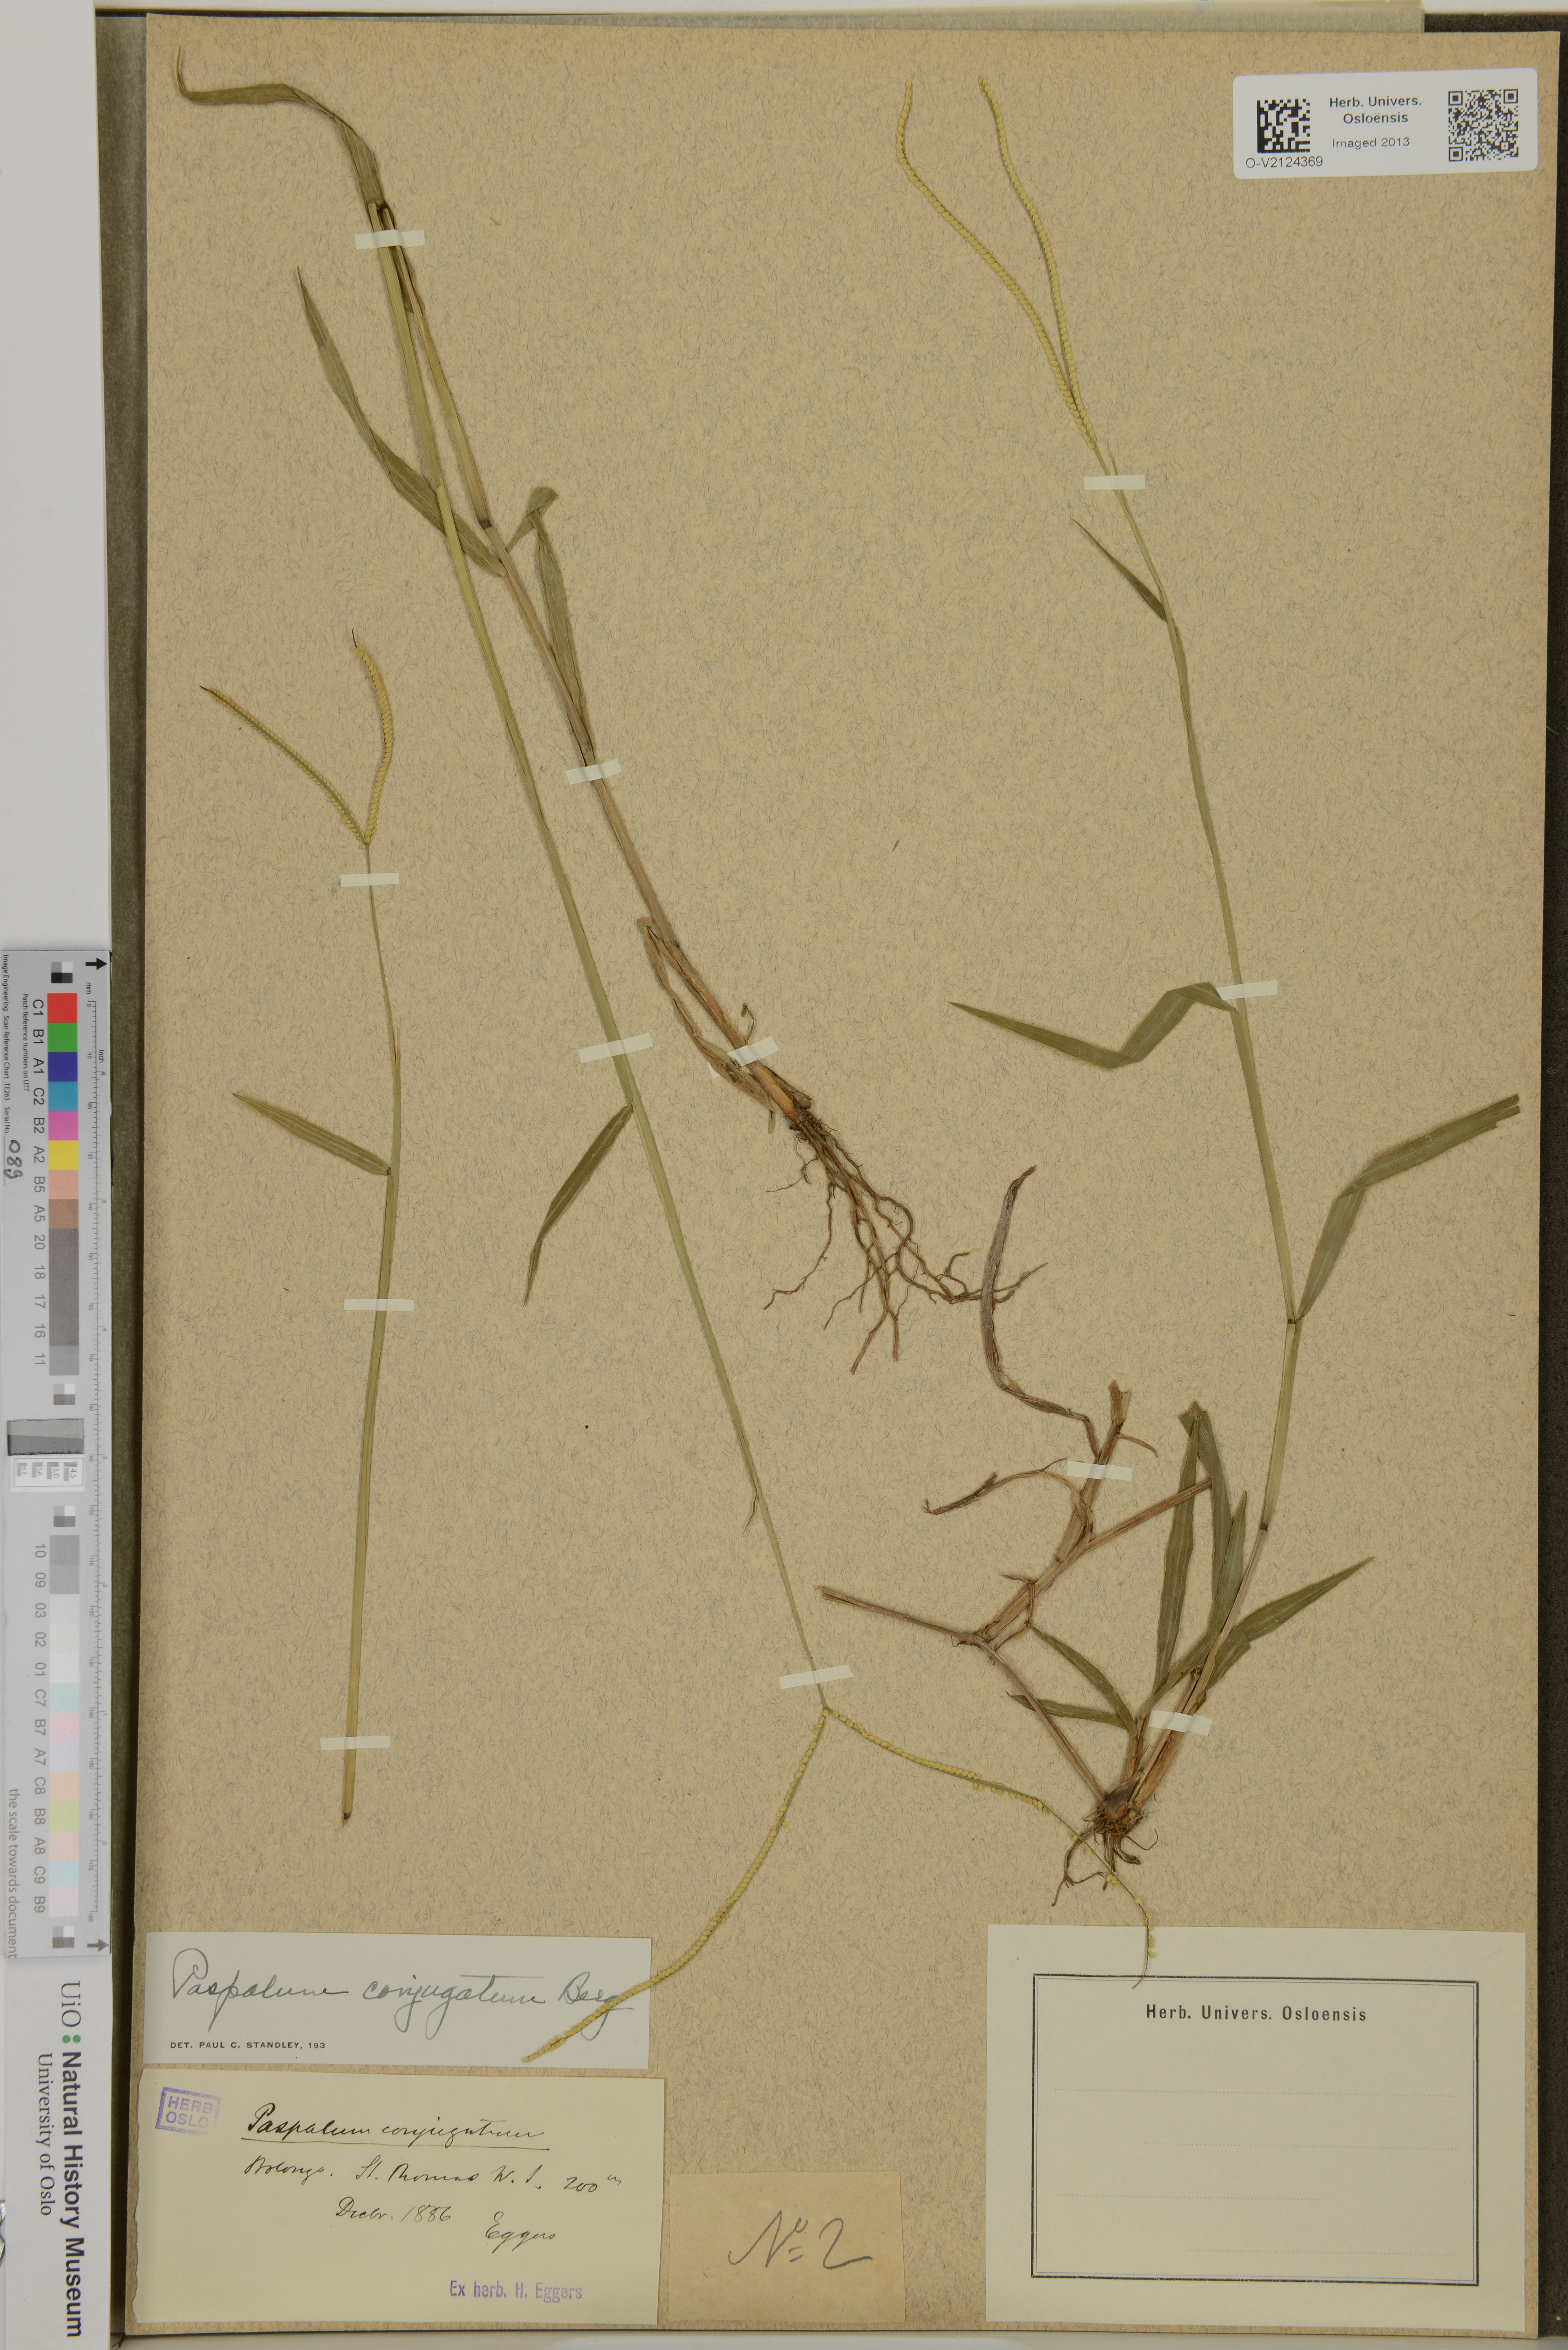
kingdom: Plantae
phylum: Tracheophyta
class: Liliopsida
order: Poales
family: Poaceae
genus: Paspalum
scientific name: Paspalum conjugatum
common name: Hilograss
